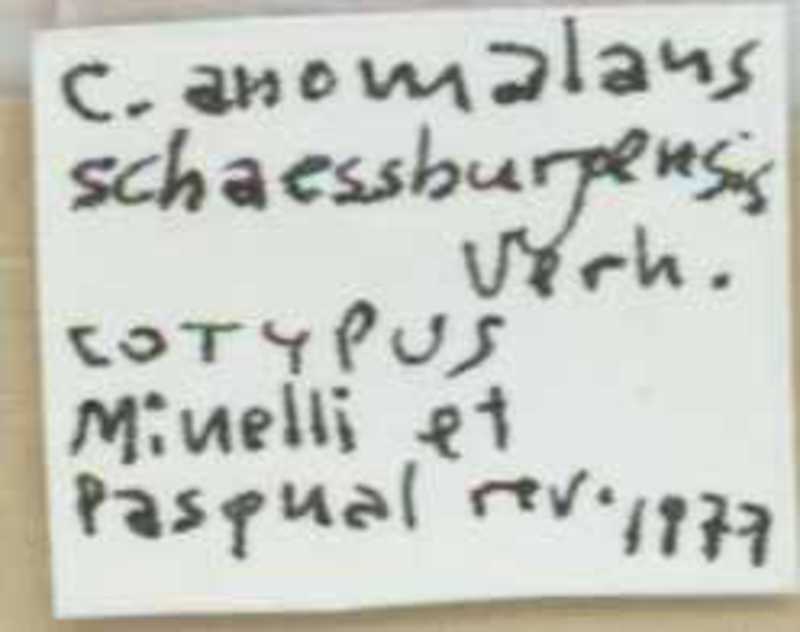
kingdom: Animalia
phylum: Arthropoda
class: Chilopoda
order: Scolopendromorpha
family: Cryptopidae
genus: Cryptops
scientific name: Cryptops anomalans
